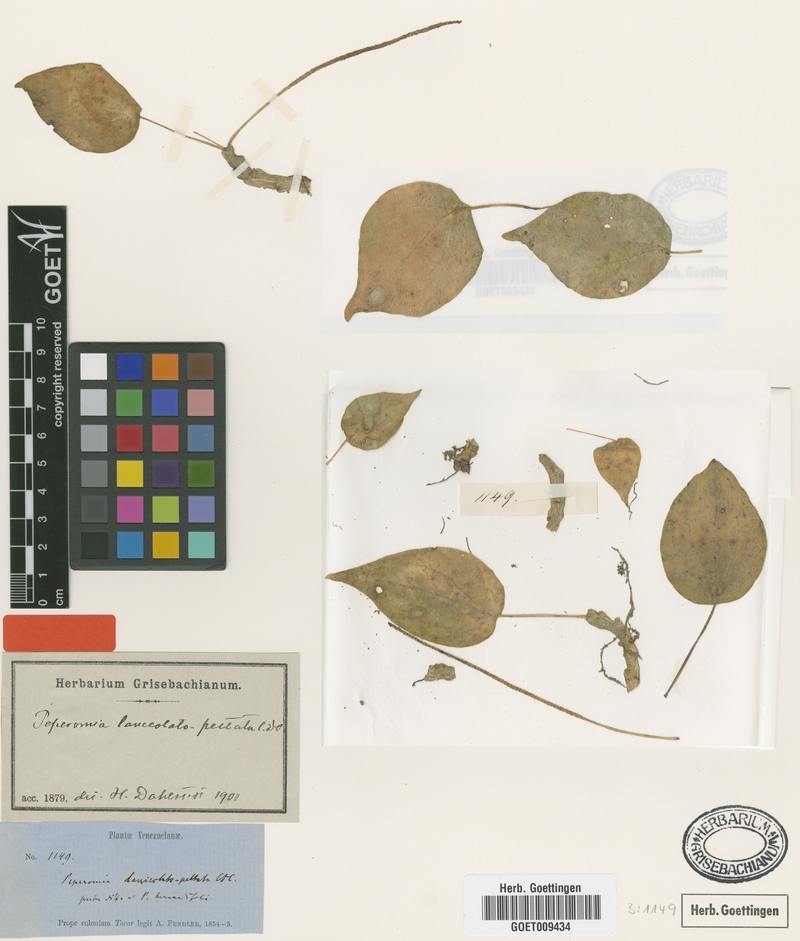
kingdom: Plantae
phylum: Tracheophyta
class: Magnoliopsida
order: Piperales
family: Piperaceae
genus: Peperomia
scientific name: Peperomia lanceolatopeltata
